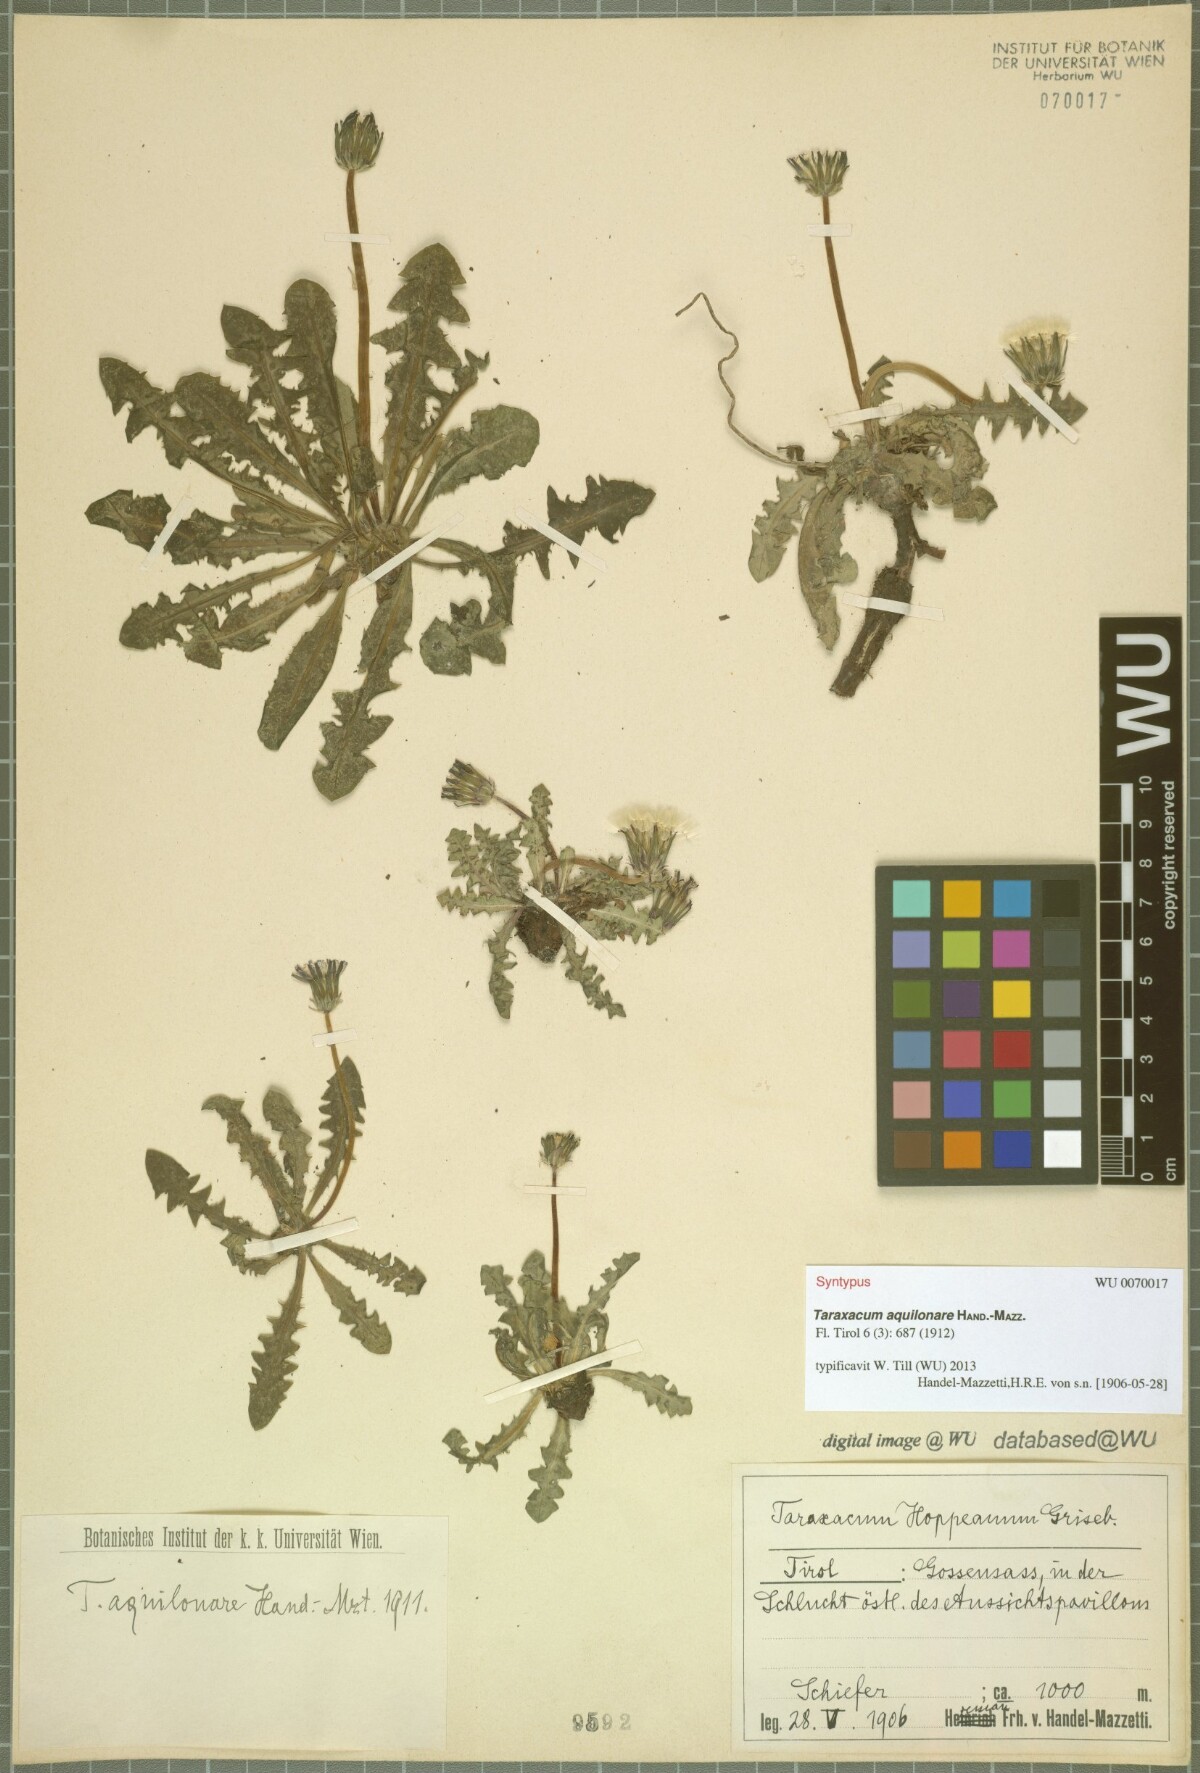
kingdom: Plantae
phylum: Tracheophyta
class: Magnoliopsida
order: Asterales
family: Asteraceae
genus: Taraxacum
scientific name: Taraxacum aquilonare
